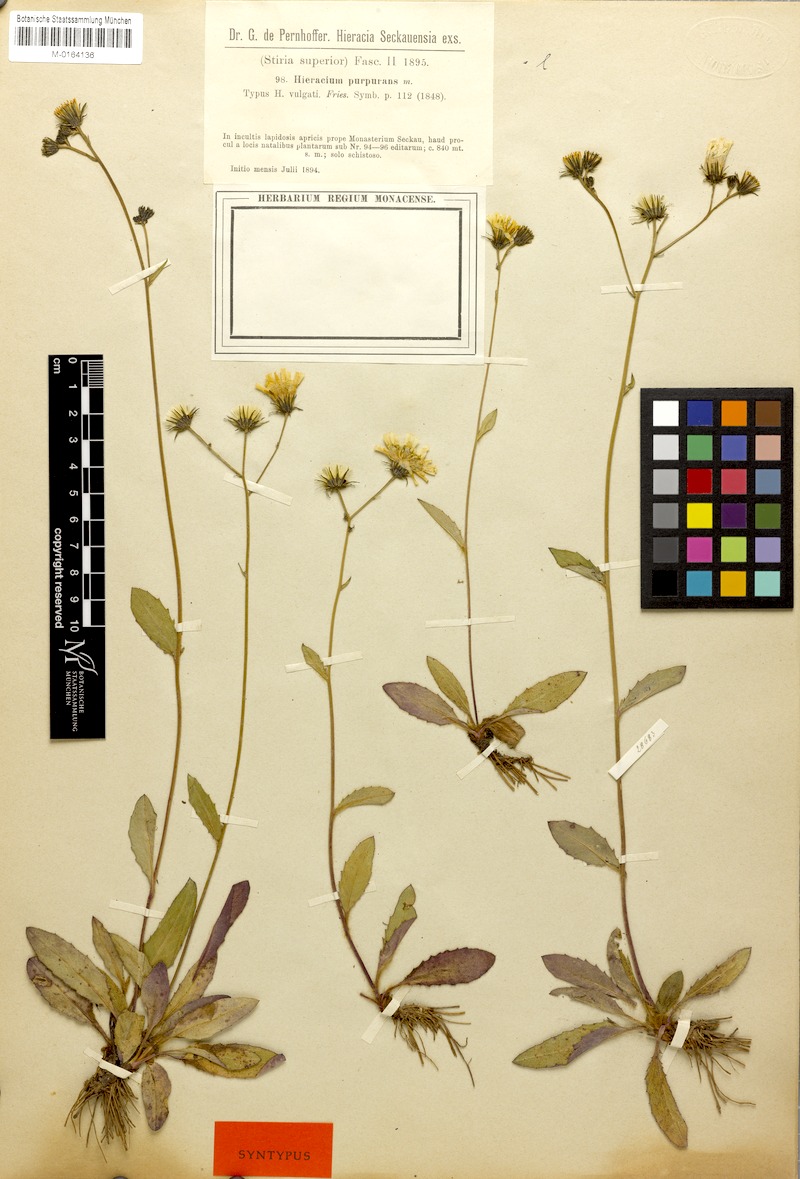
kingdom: Plantae
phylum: Tracheophyta
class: Magnoliopsida
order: Asterales
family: Asteraceae
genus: Hieracium
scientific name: Hieracium lachenalii
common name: Common hawkweed
